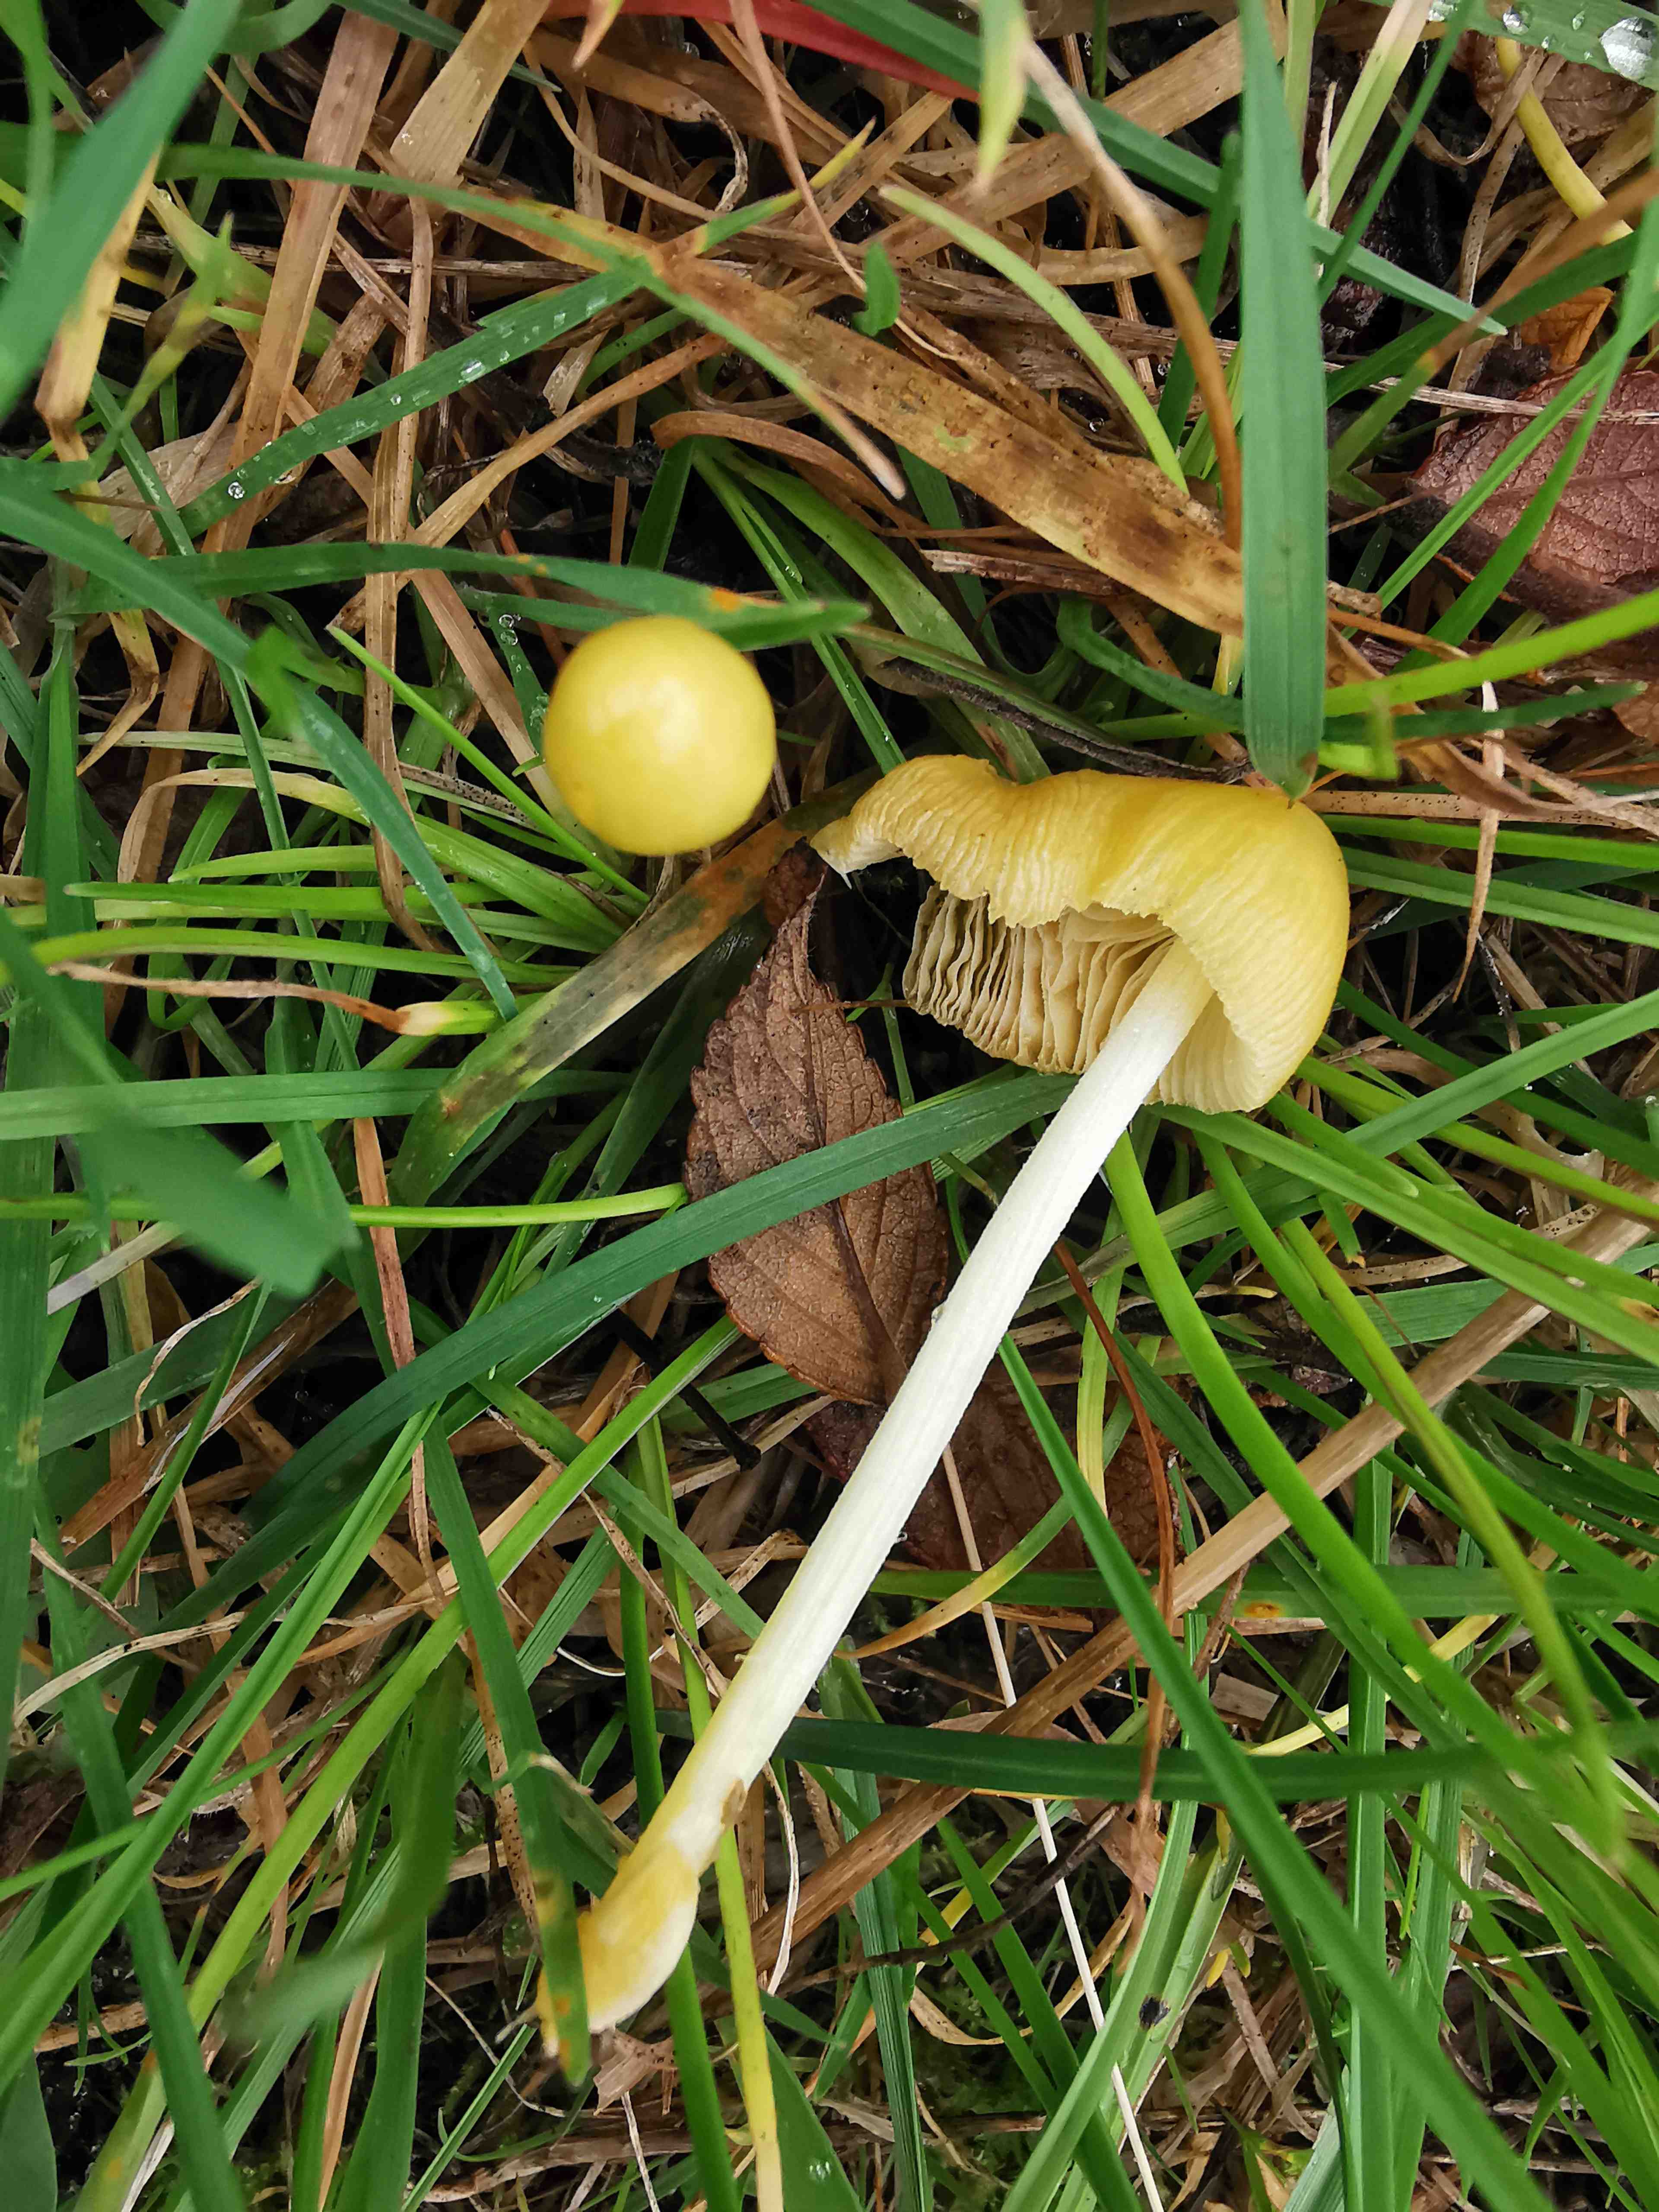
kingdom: Fungi
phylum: Basidiomycota
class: Agaricomycetes
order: Agaricales
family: Bolbitiaceae
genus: Bolbitius
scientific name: Bolbitius titubans
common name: almindelig gulhat
